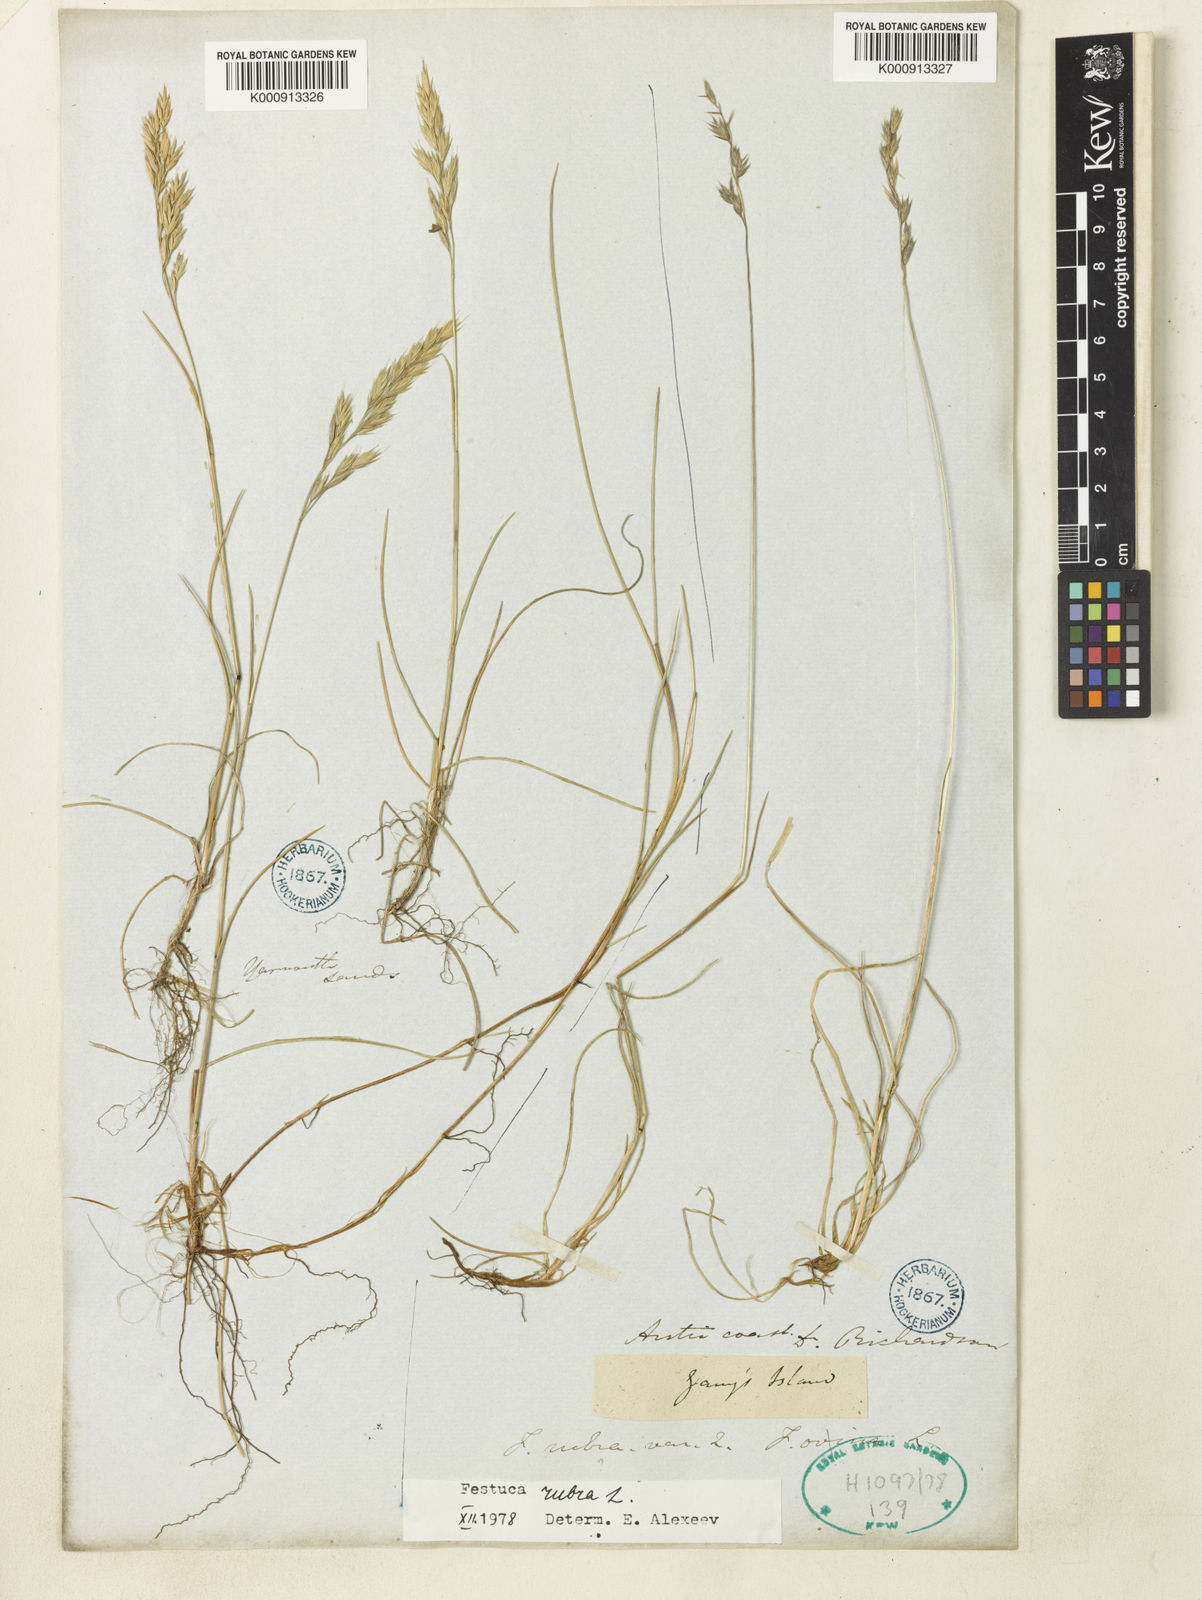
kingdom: Plantae
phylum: Tracheophyta
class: Liliopsida
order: Poales
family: Poaceae
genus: Festuca
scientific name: Festuca rubra
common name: Red fescue
